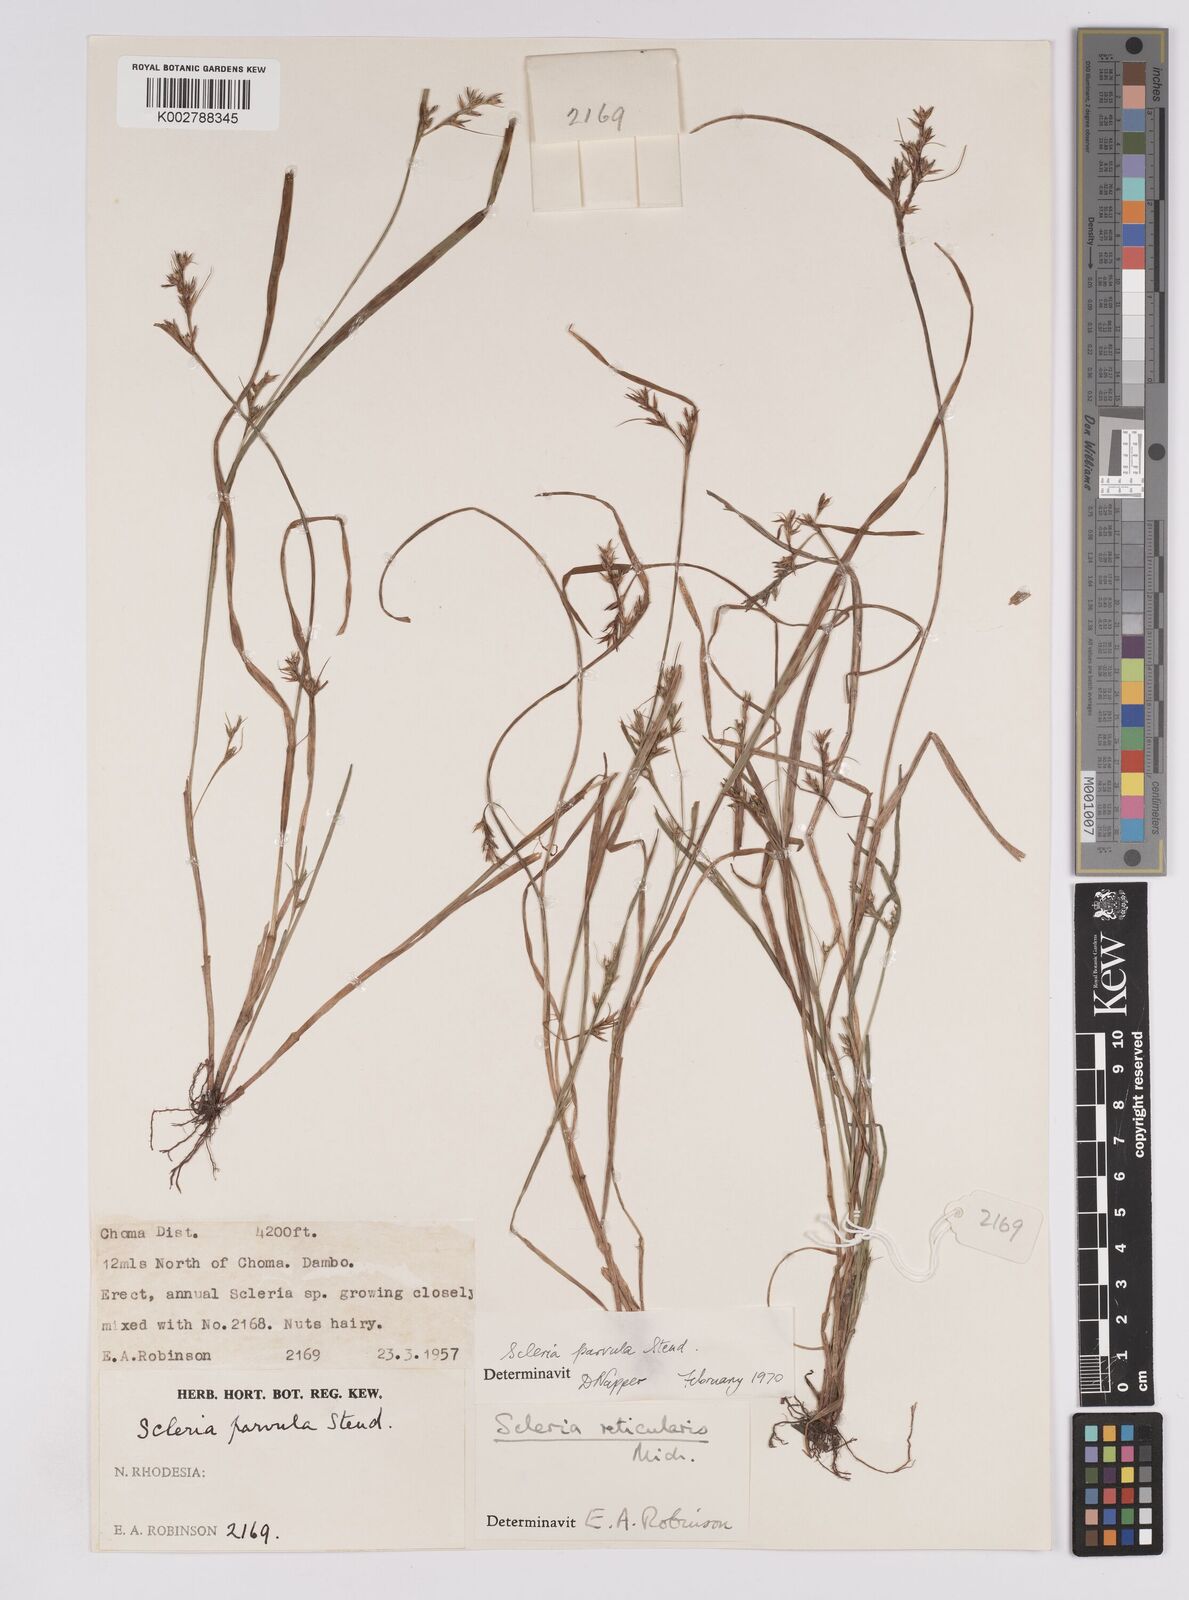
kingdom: Plantae
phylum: Tracheophyta
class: Liliopsida
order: Poales
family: Cyperaceae
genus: Scleria
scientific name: Scleria parvula
